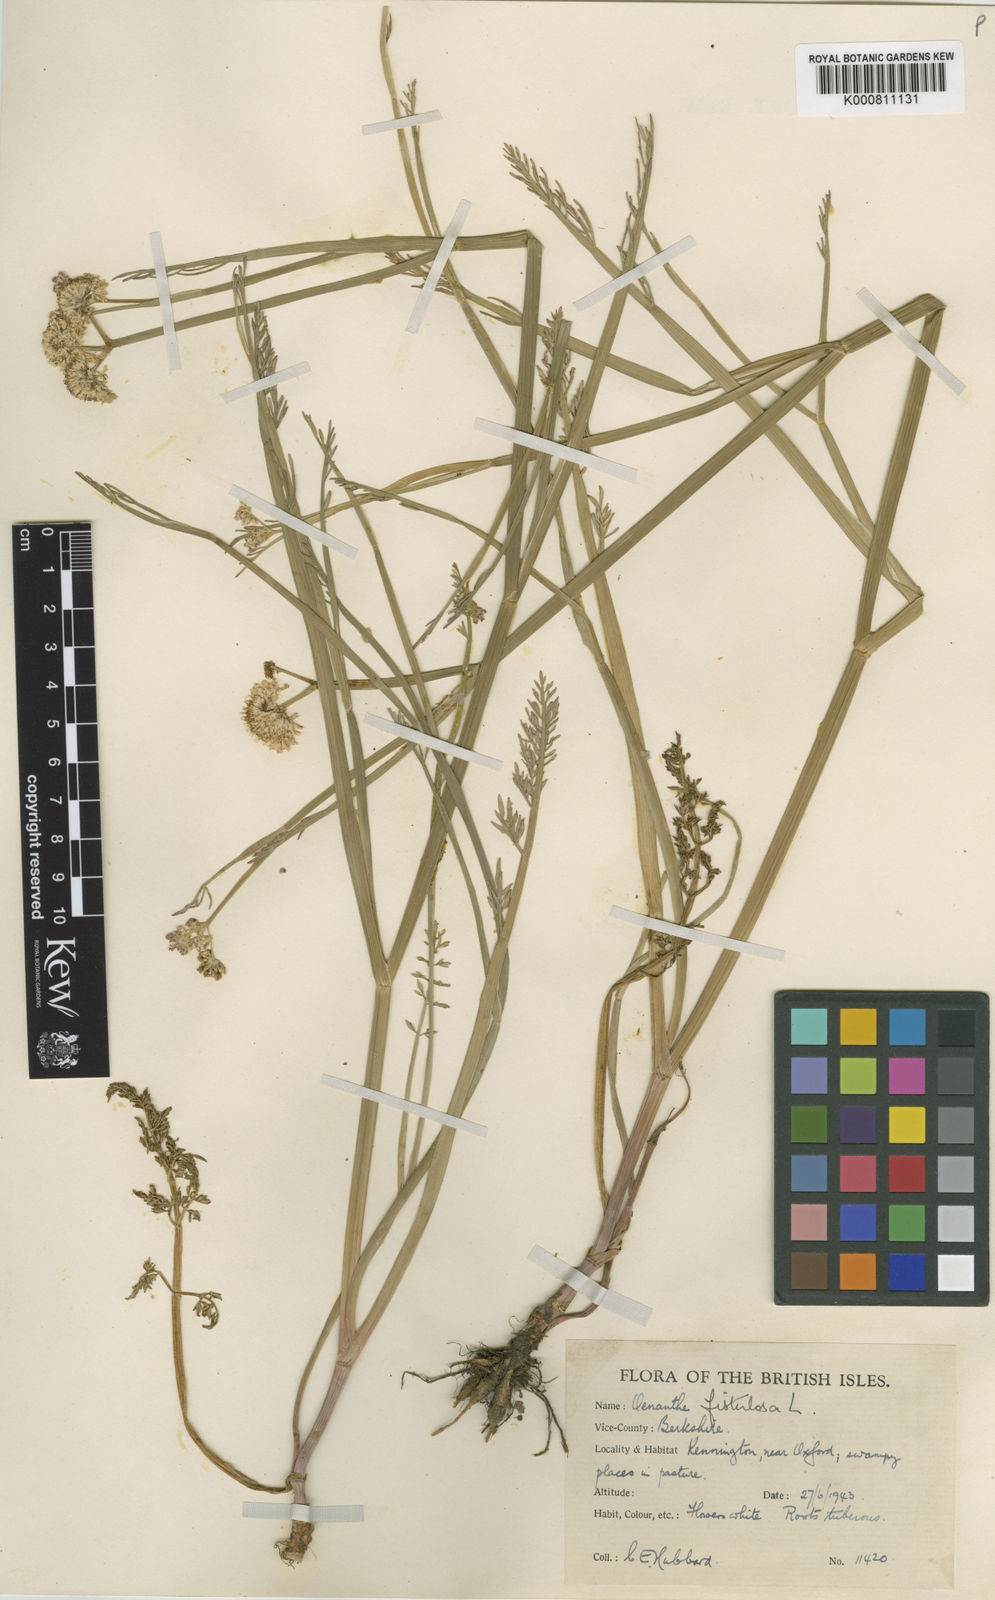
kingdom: Plantae
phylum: Tracheophyta
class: Magnoliopsida
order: Apiales
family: Apiaceae
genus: Oenanthe
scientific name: Oenanthe fistulosa
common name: Tubular water-dropwort
